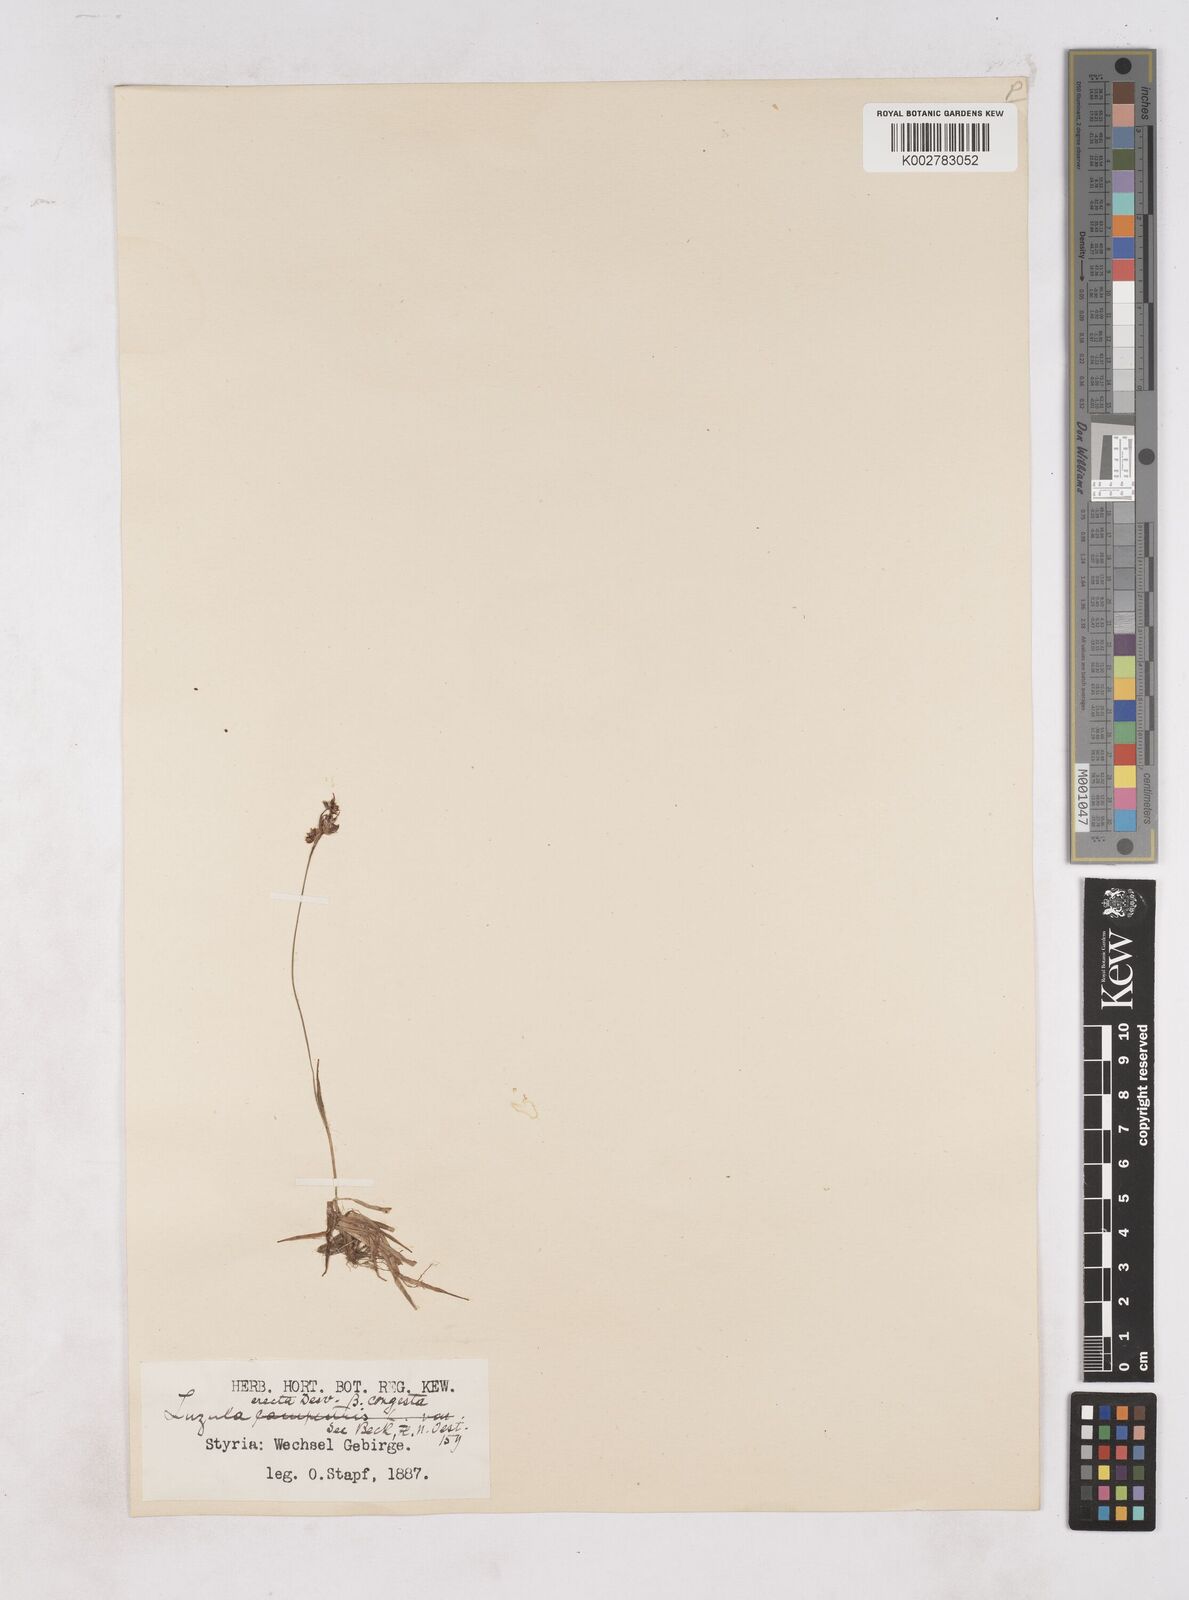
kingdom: Plantae
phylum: Tracheophyta
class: Liliopsida
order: Poales
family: Juncaceae
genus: Luzula
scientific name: Luzula campestris
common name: Field wood-rush
